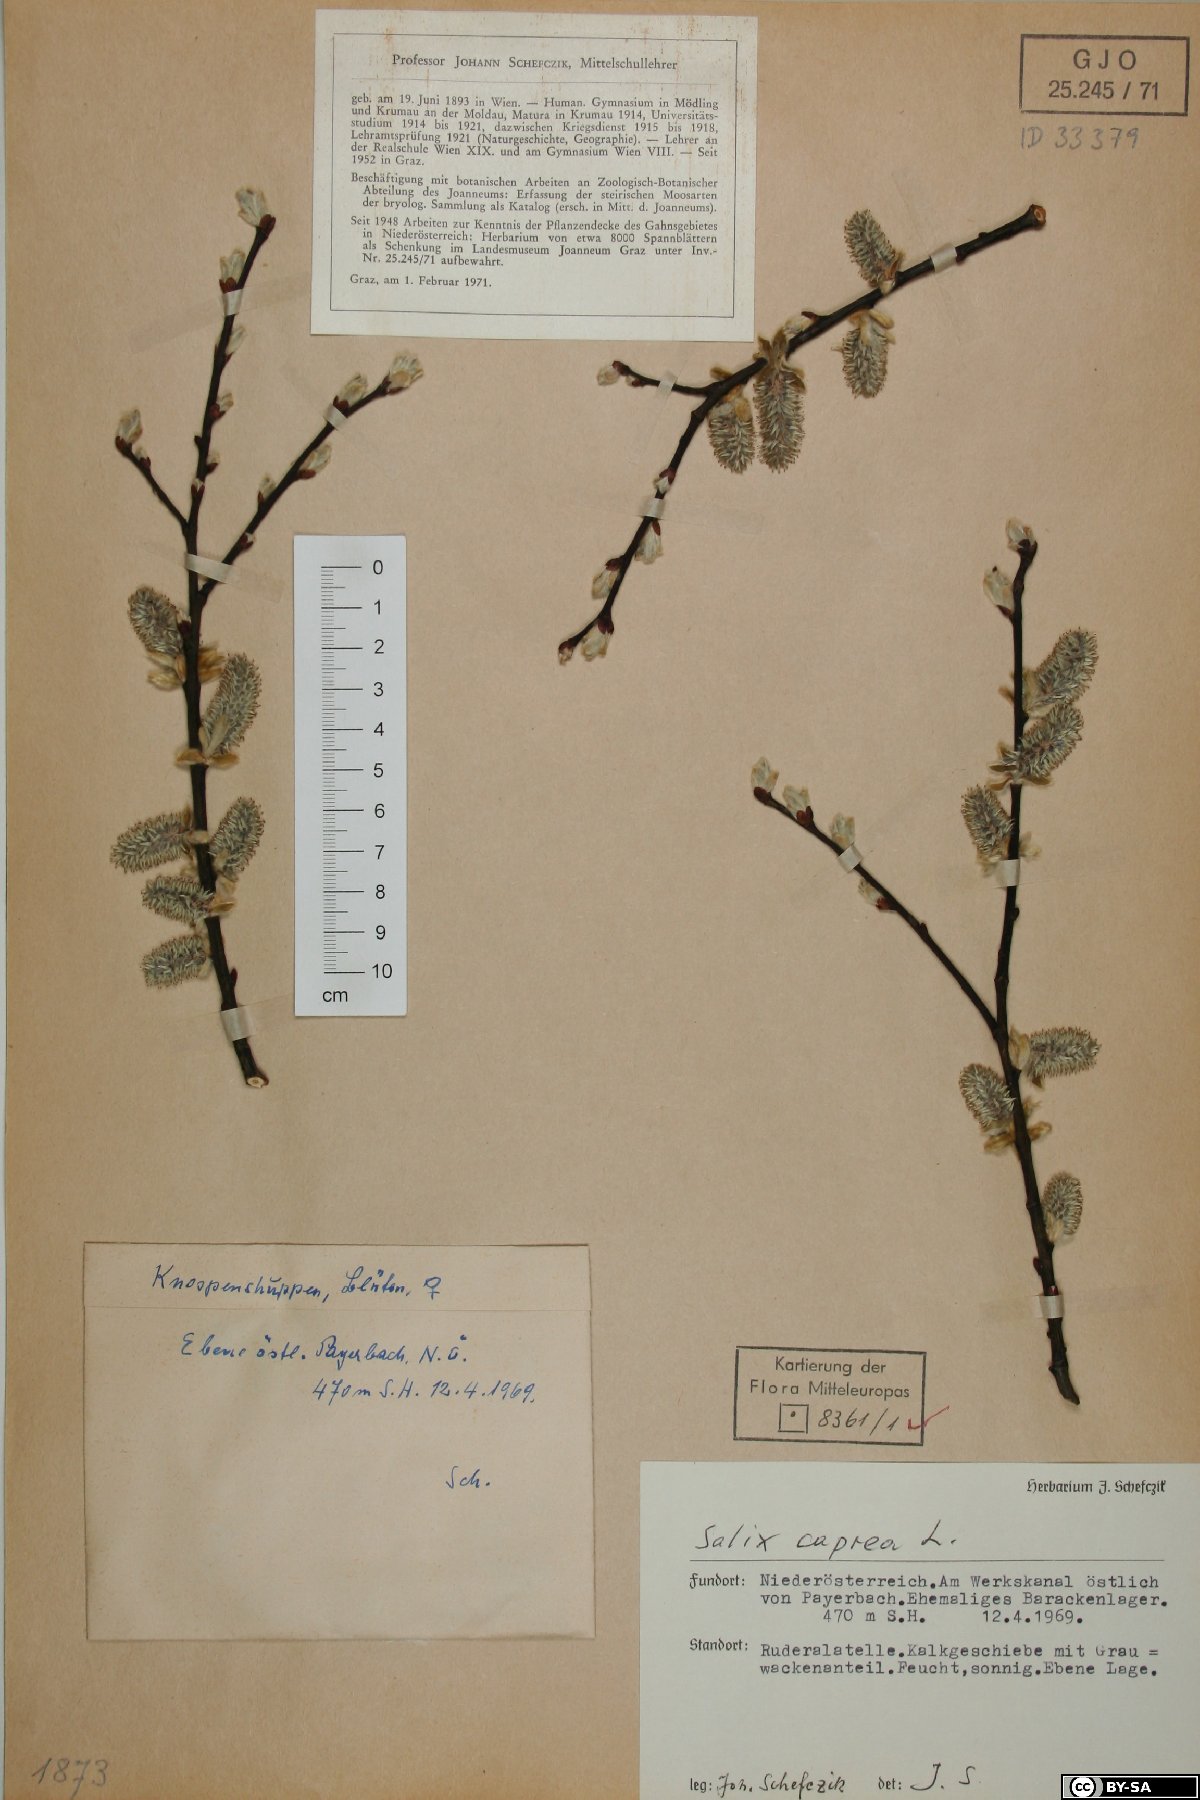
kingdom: Plantae
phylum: Tracheophyta
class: Magnoliopsida
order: Malpighiales
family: Salicaceae
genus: Salix
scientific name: Salix caprea
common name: Goat willow
